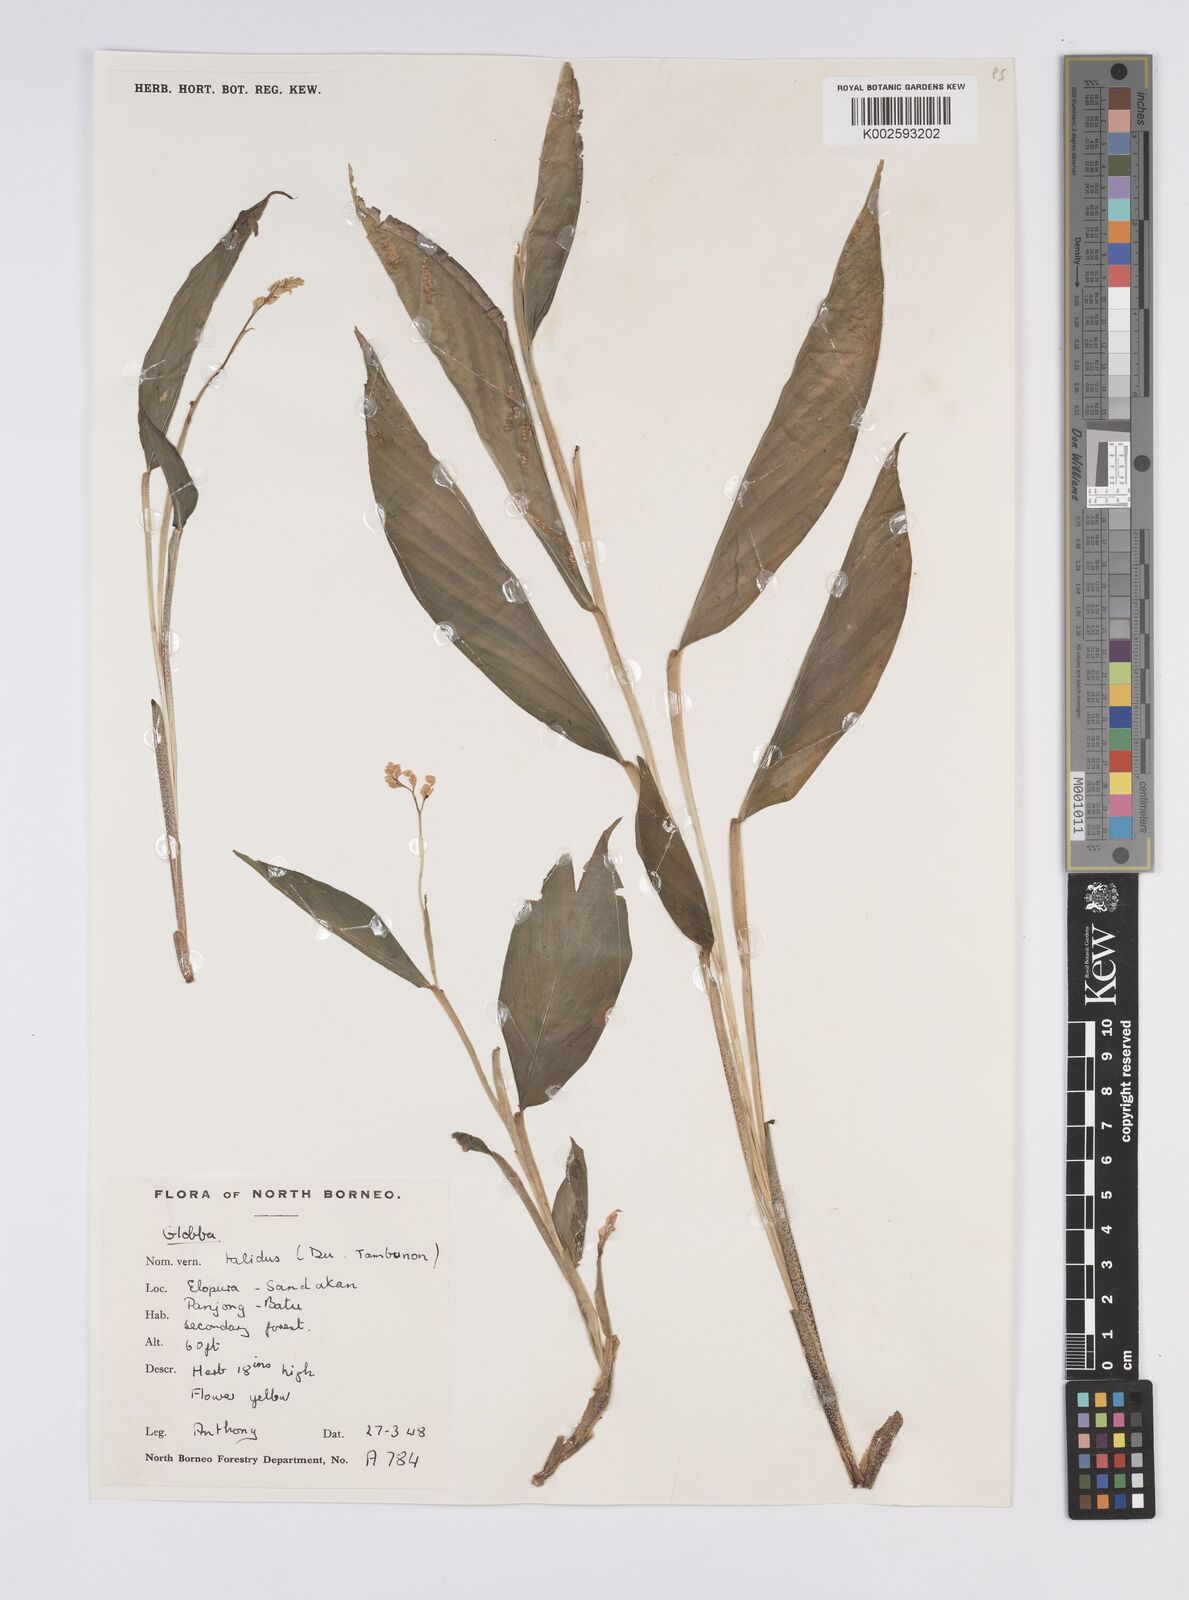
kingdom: Plantae
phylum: Tracheophyta
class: Liliopsida
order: Zingiberales
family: Zingiberaceae
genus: Globba
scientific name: Globba
